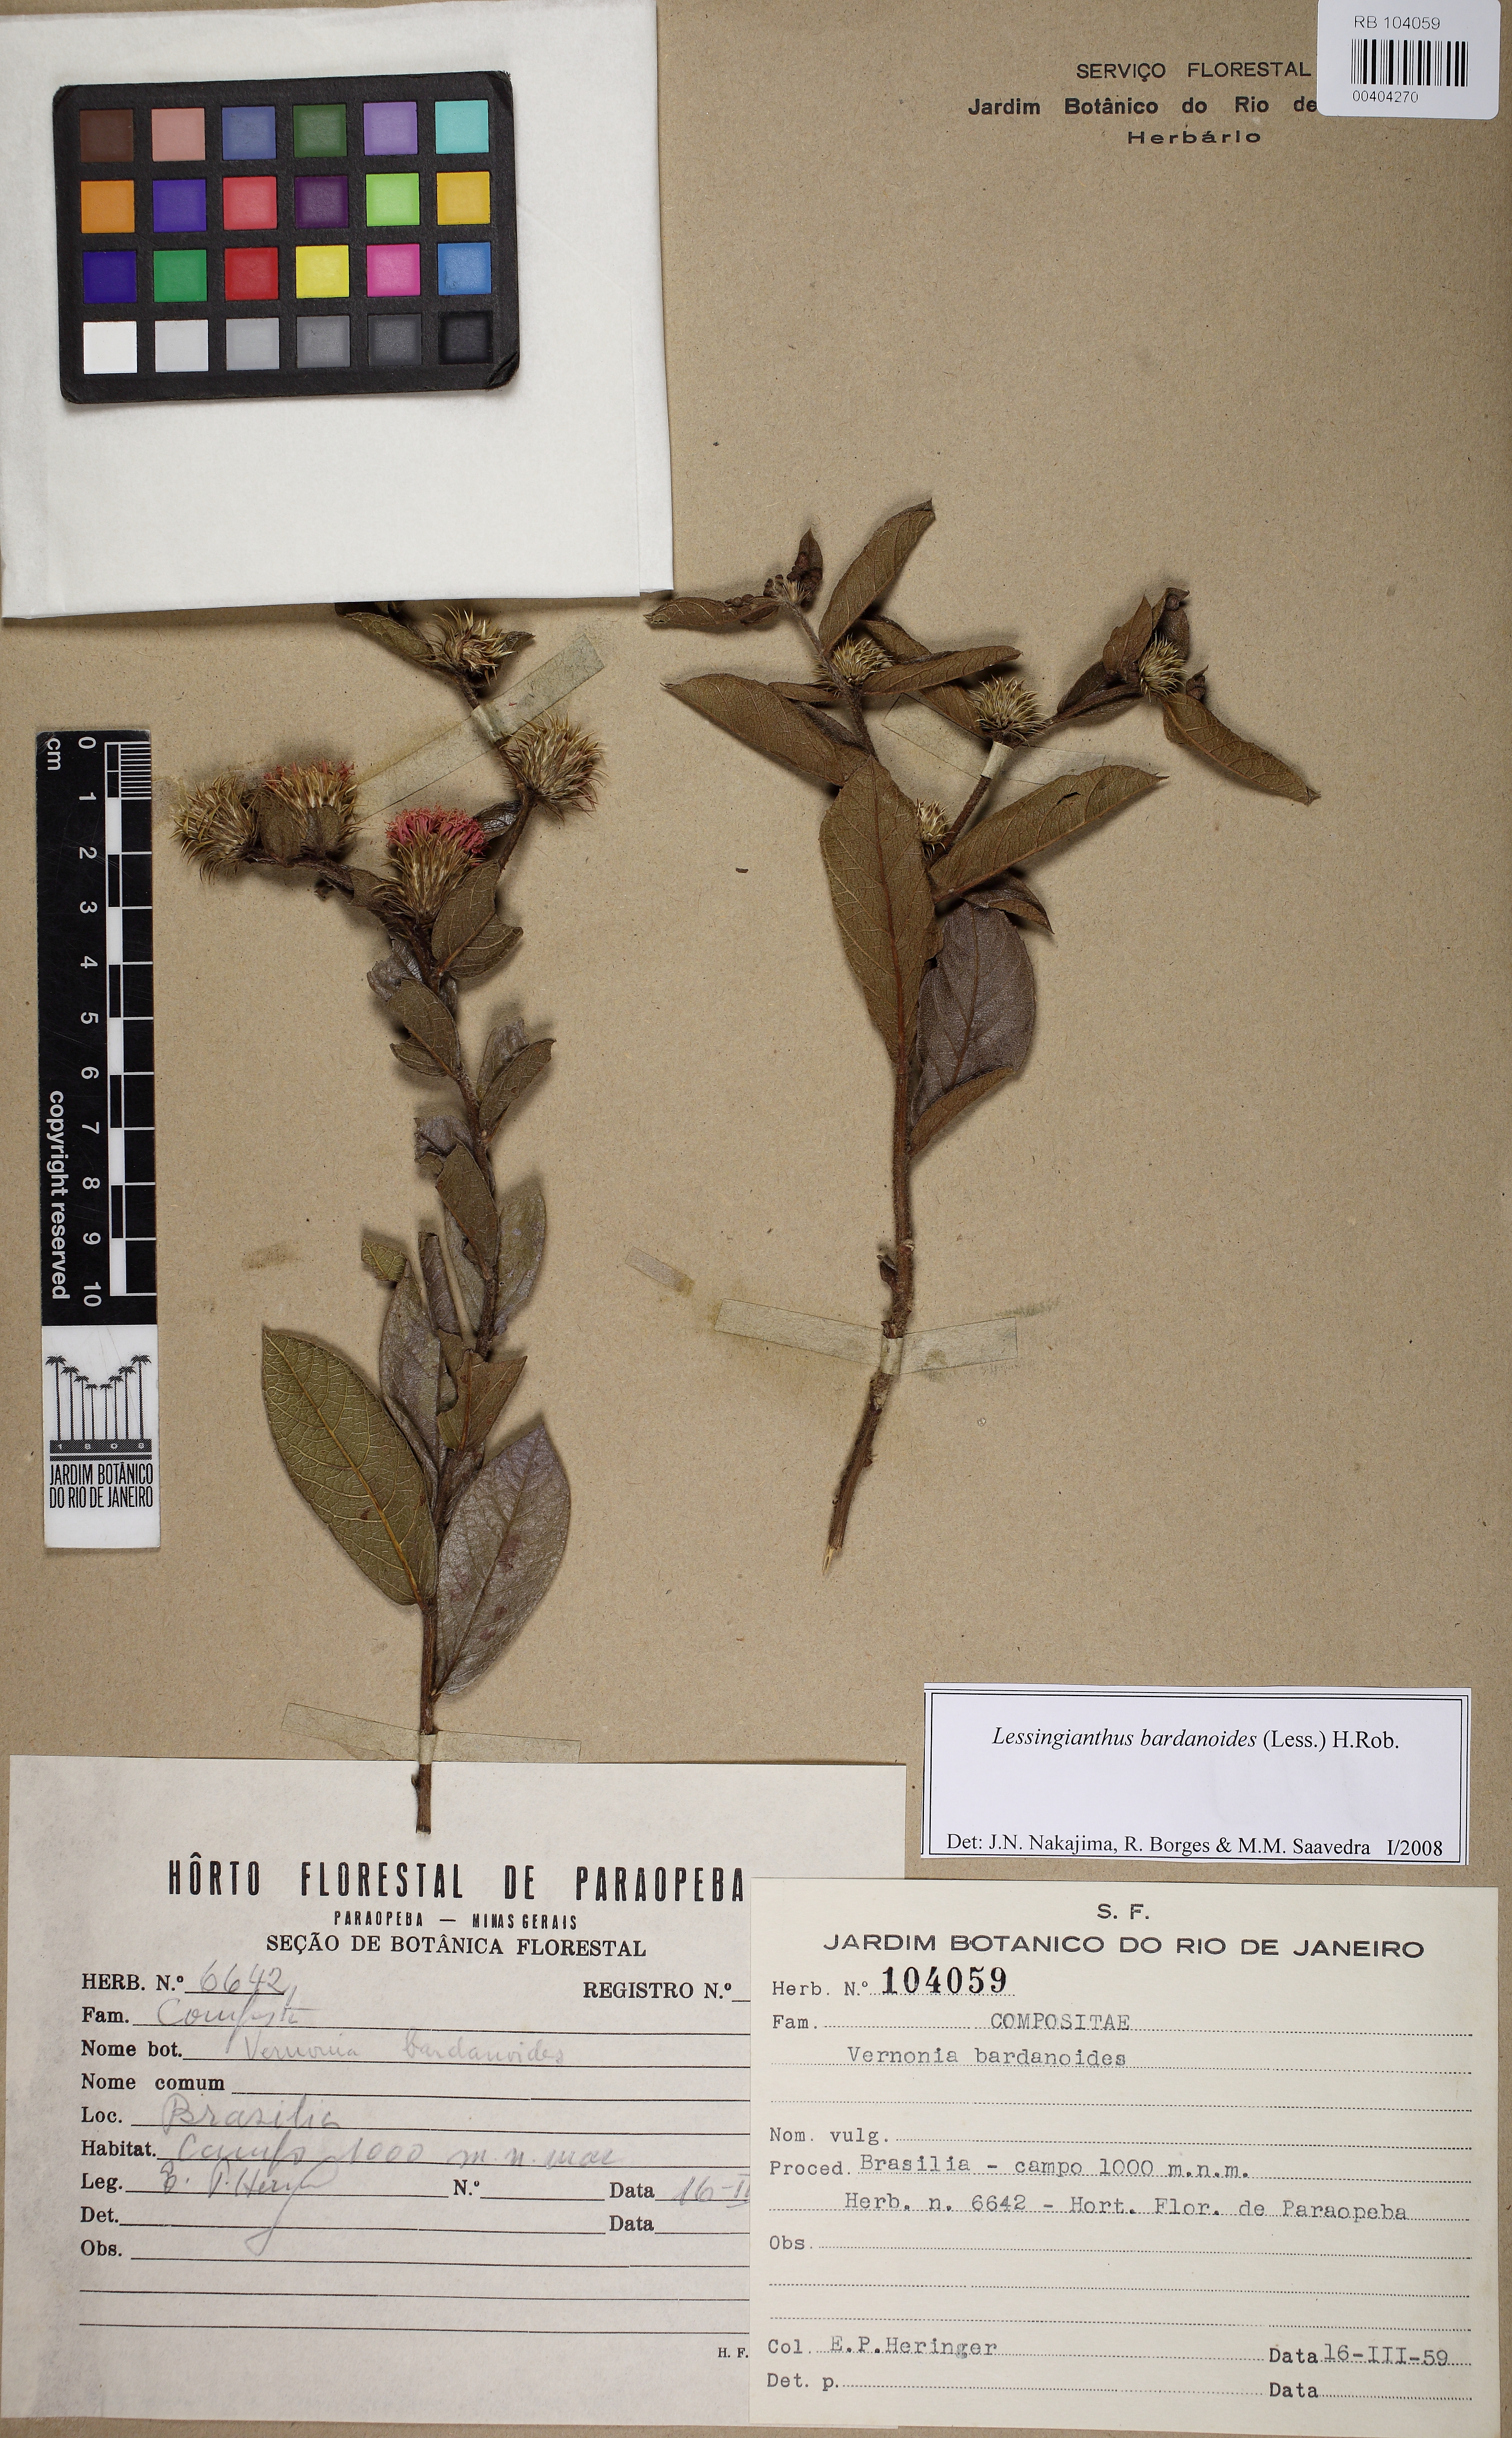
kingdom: Plantae
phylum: Tracheophyta
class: Magnoliopsida
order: Asterales
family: Asteraceae
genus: Lessingianthus
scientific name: Lessingianthus bardanioides
